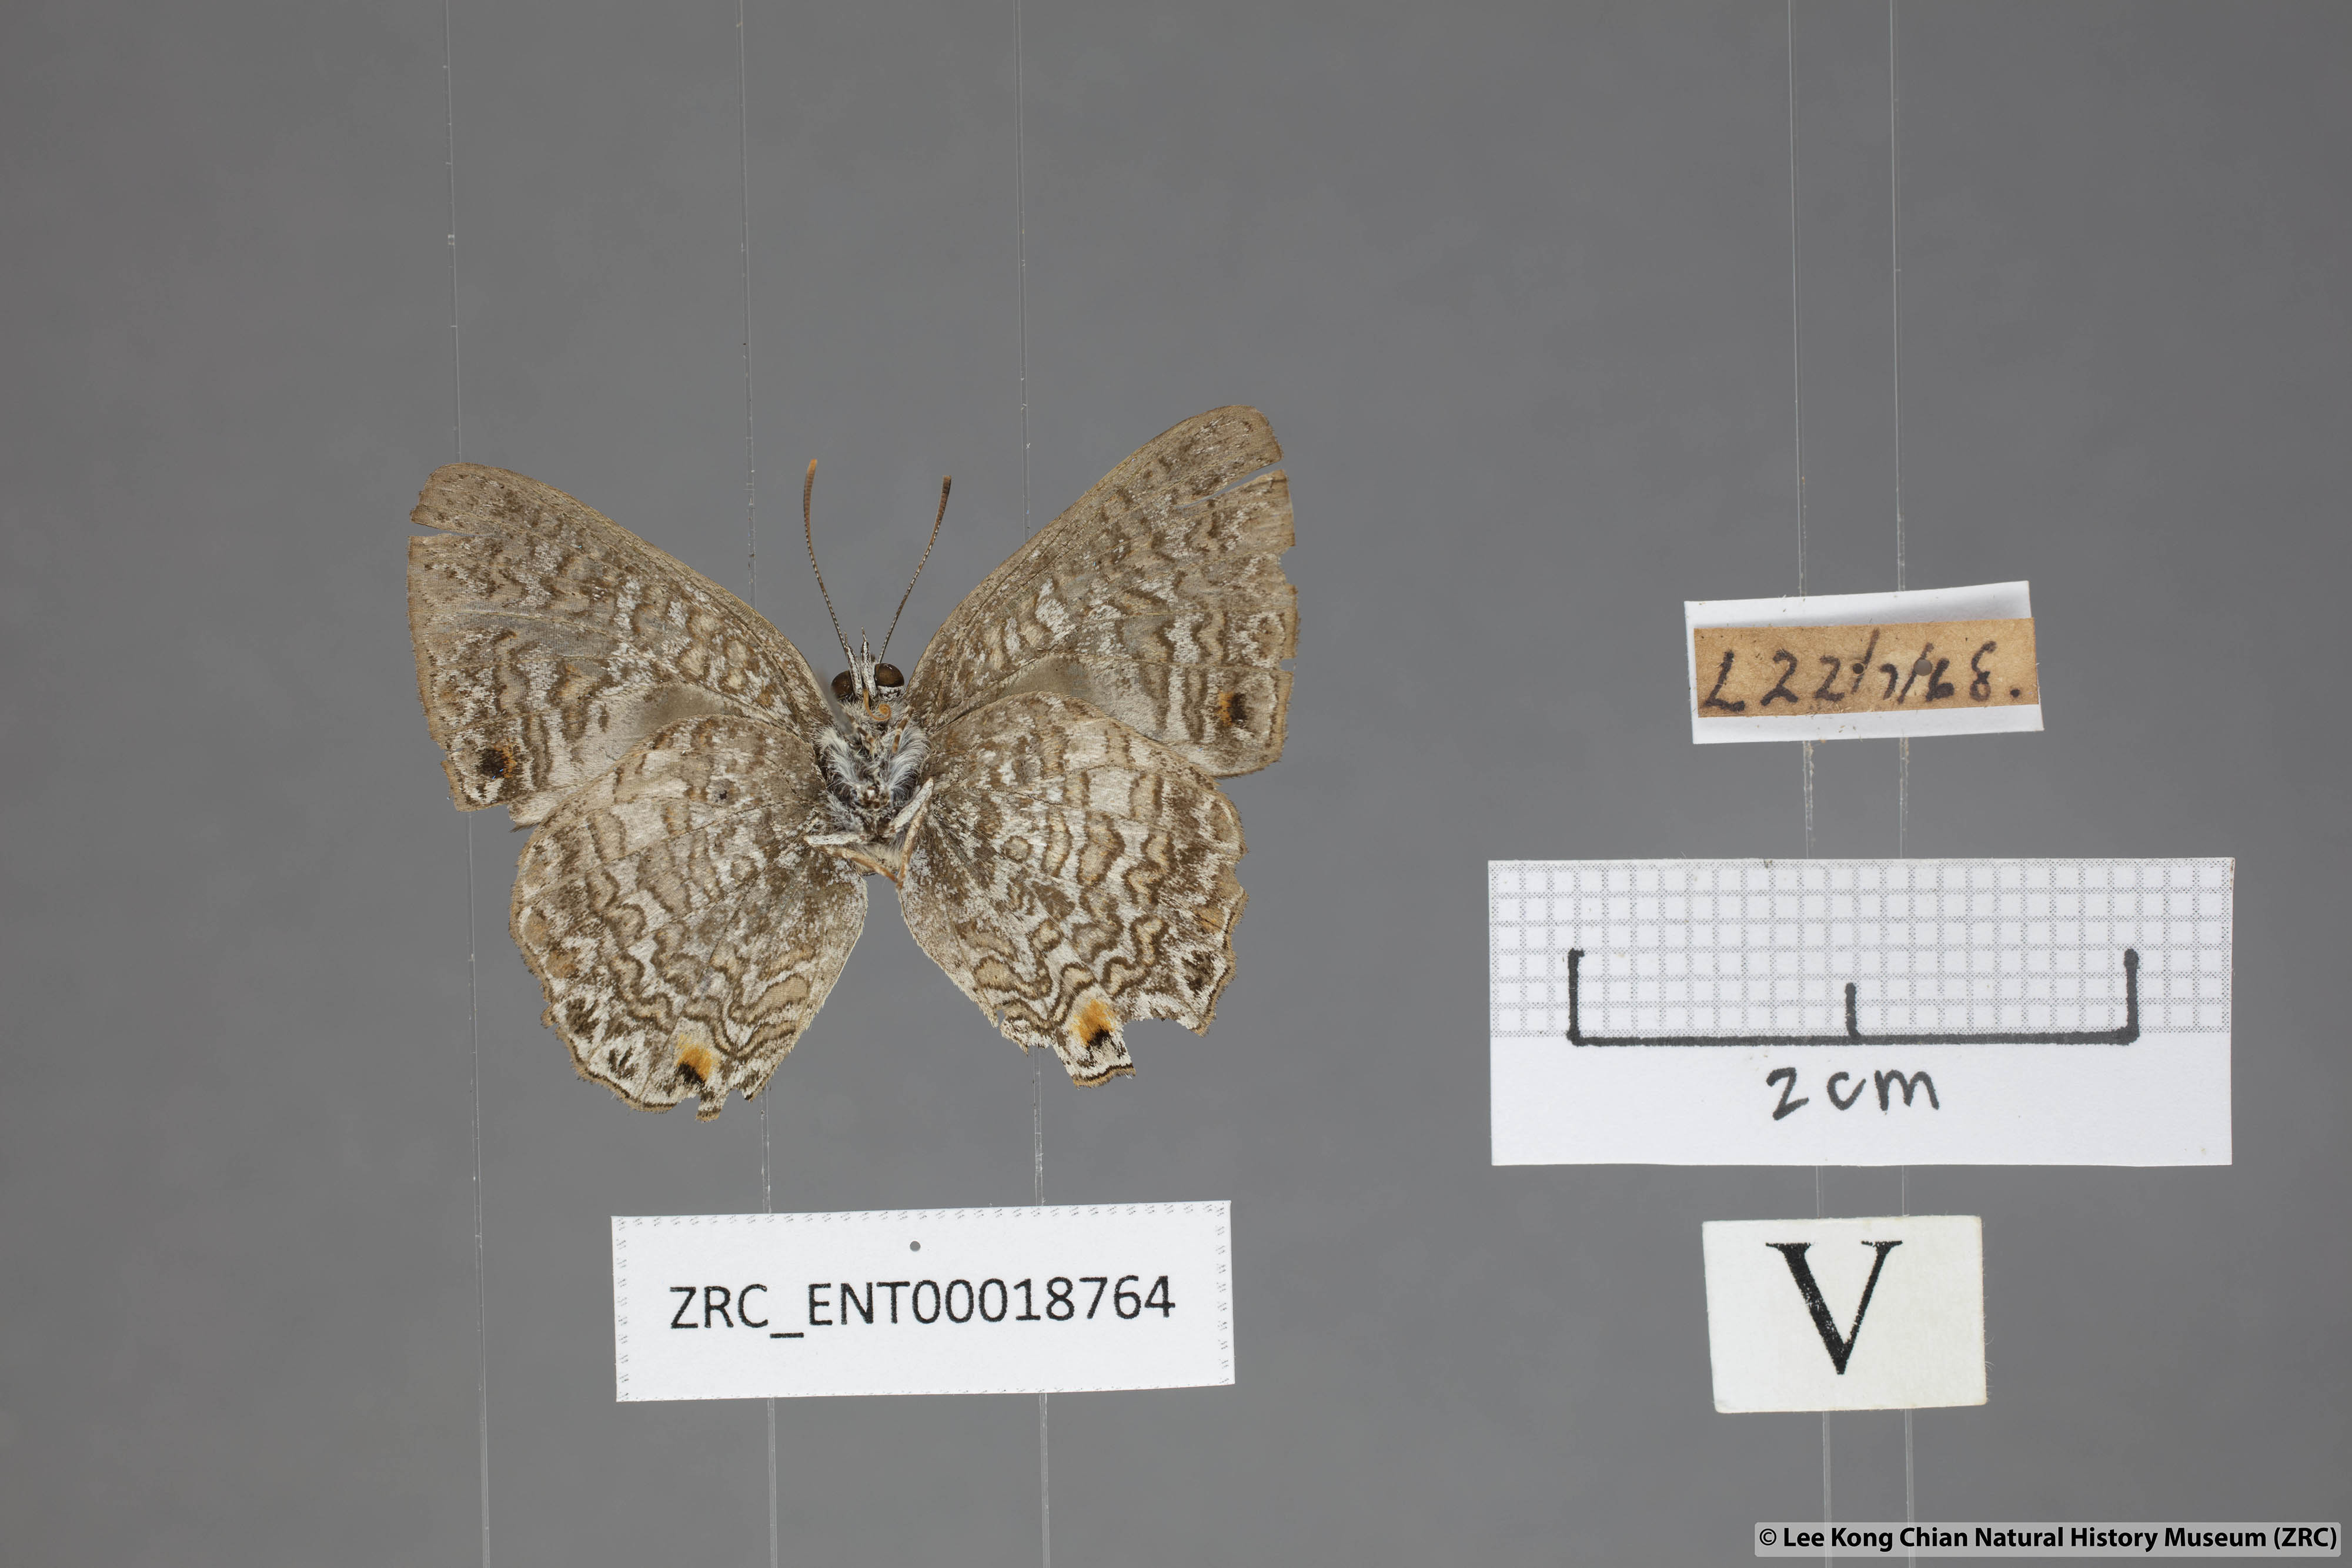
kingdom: Animalia
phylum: Arthropoda
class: Insecta
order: Lepidoptera
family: Lycaenidae
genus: Poritia
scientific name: Poritia erycinoides
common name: Blue gem
